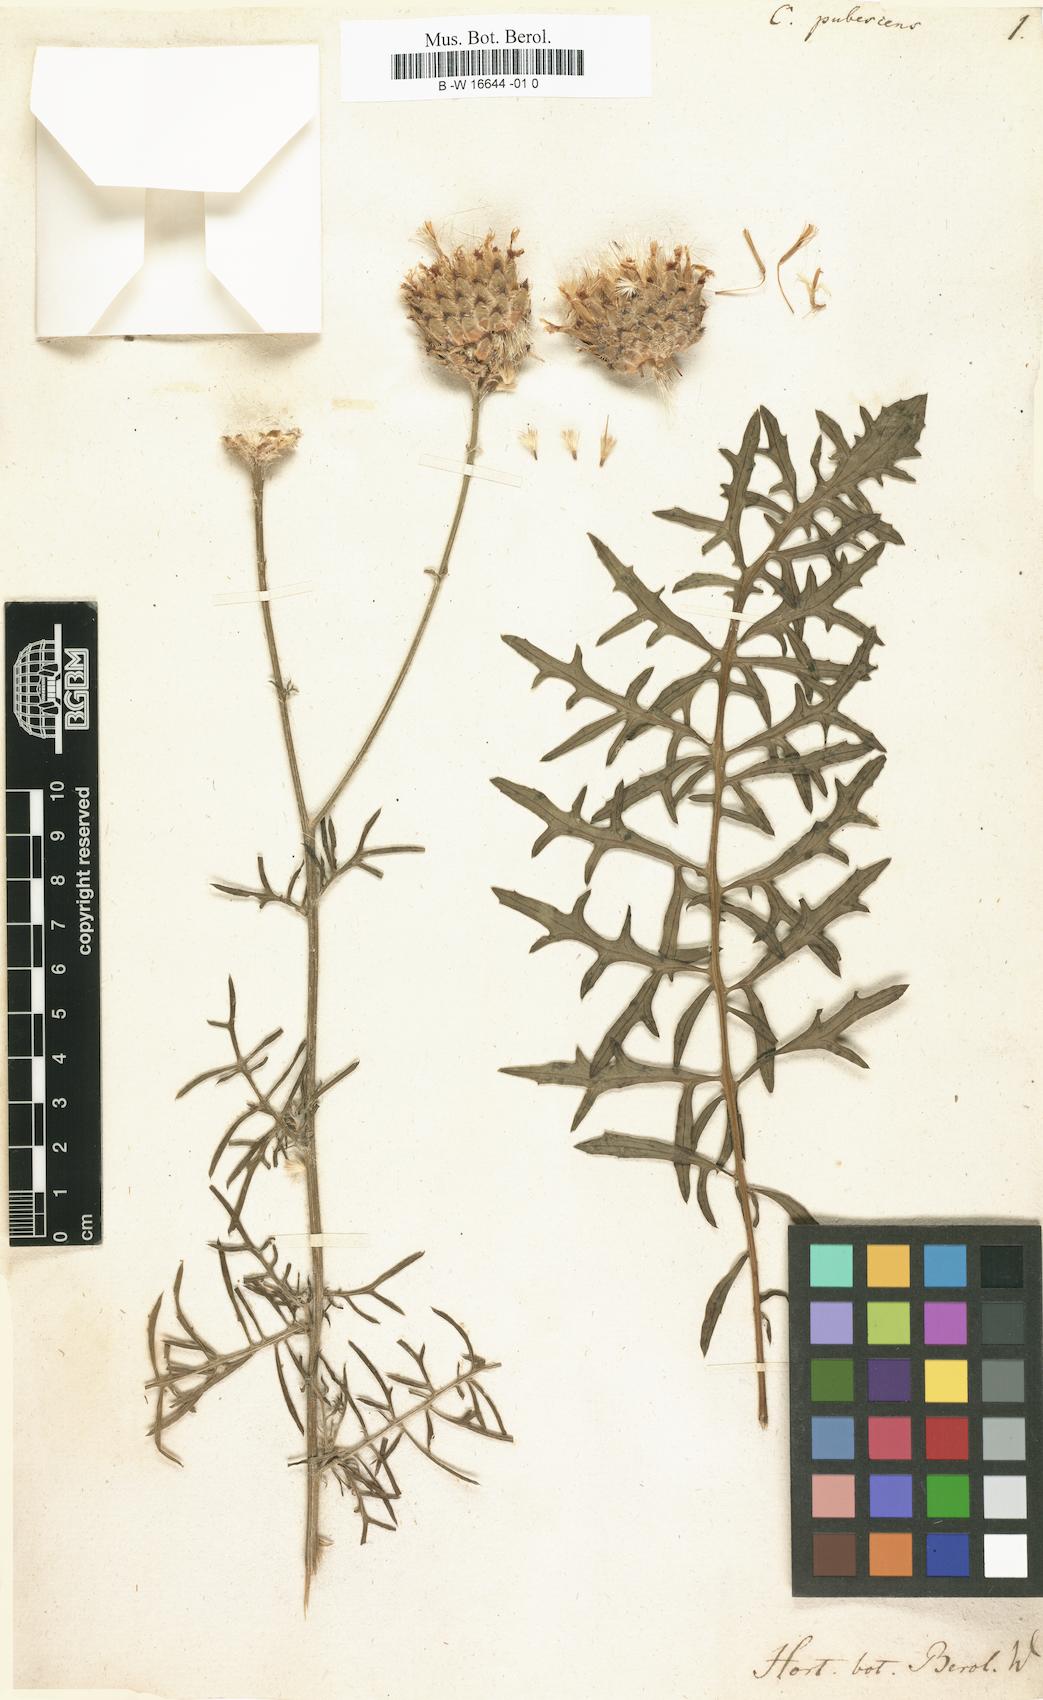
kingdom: Plantae
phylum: Tracheophyta
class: Magnoliopsida
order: Asterales
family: Asteraceae
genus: Centaurea
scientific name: Centaurea pubescens
